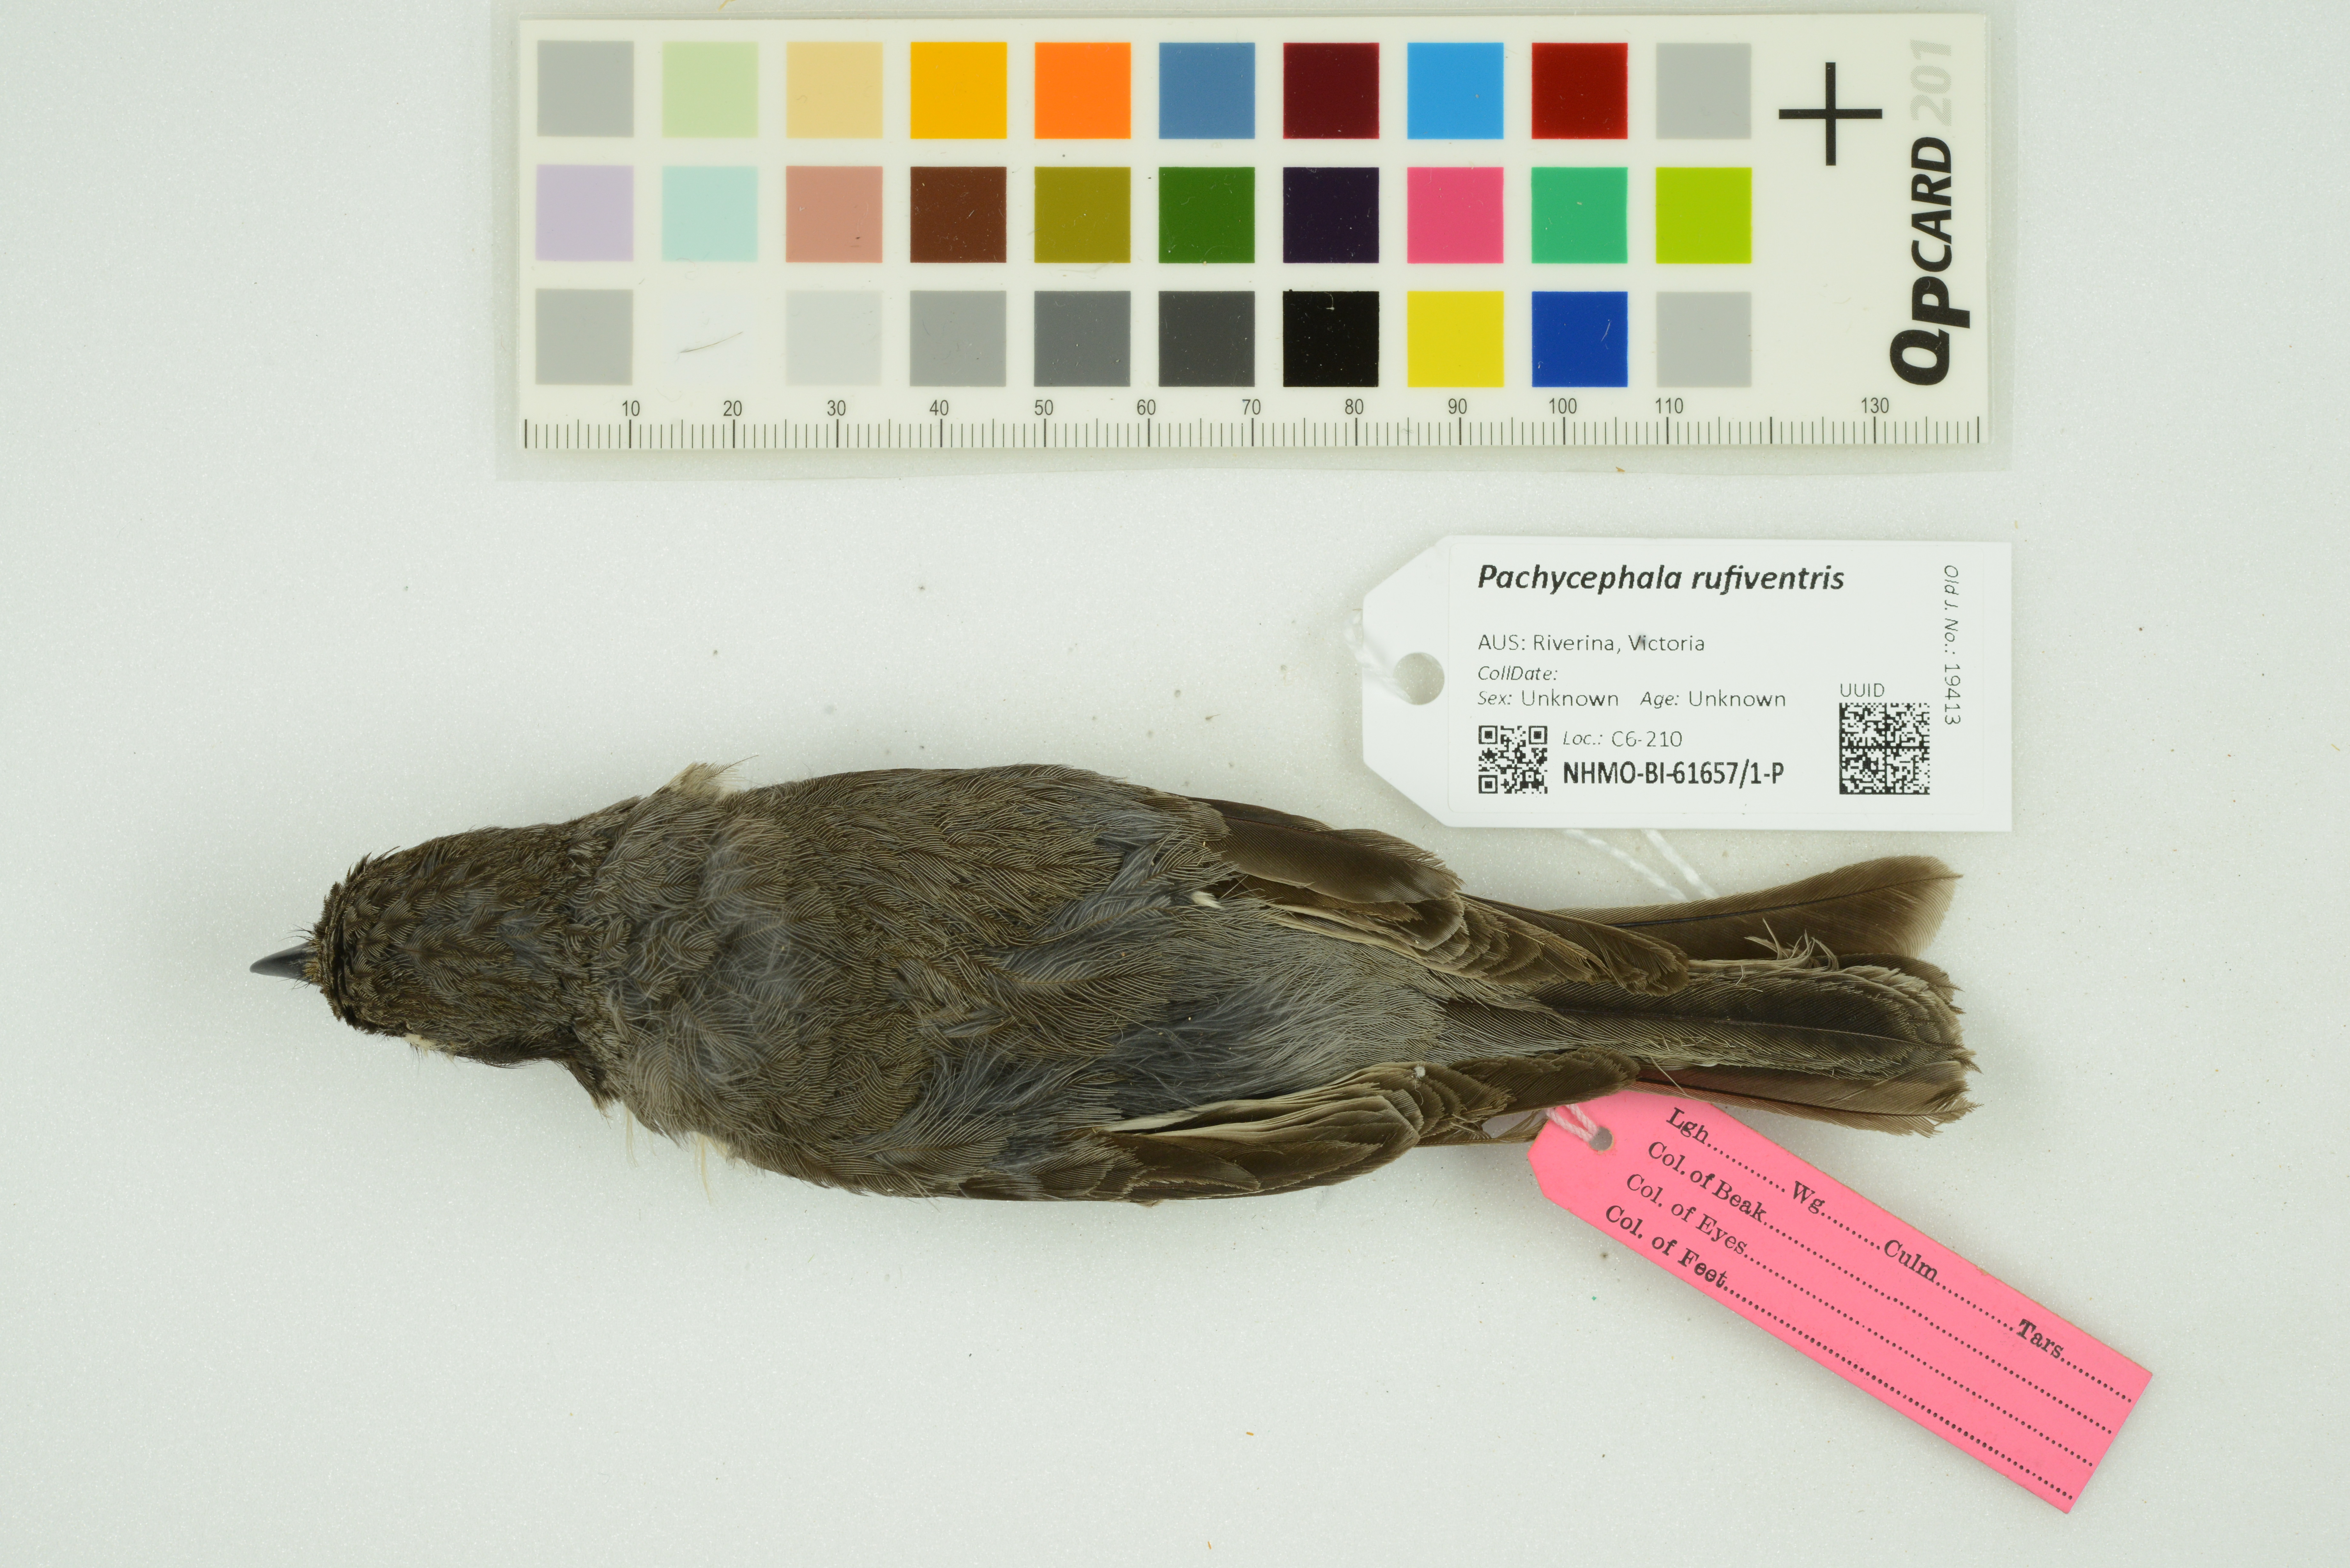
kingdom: Animalia
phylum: Chordata
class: Aves
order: Passeriformes
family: Pachycephalidae
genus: Pachycephala
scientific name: Pachycephala rufiventris
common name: Rufous whistler
